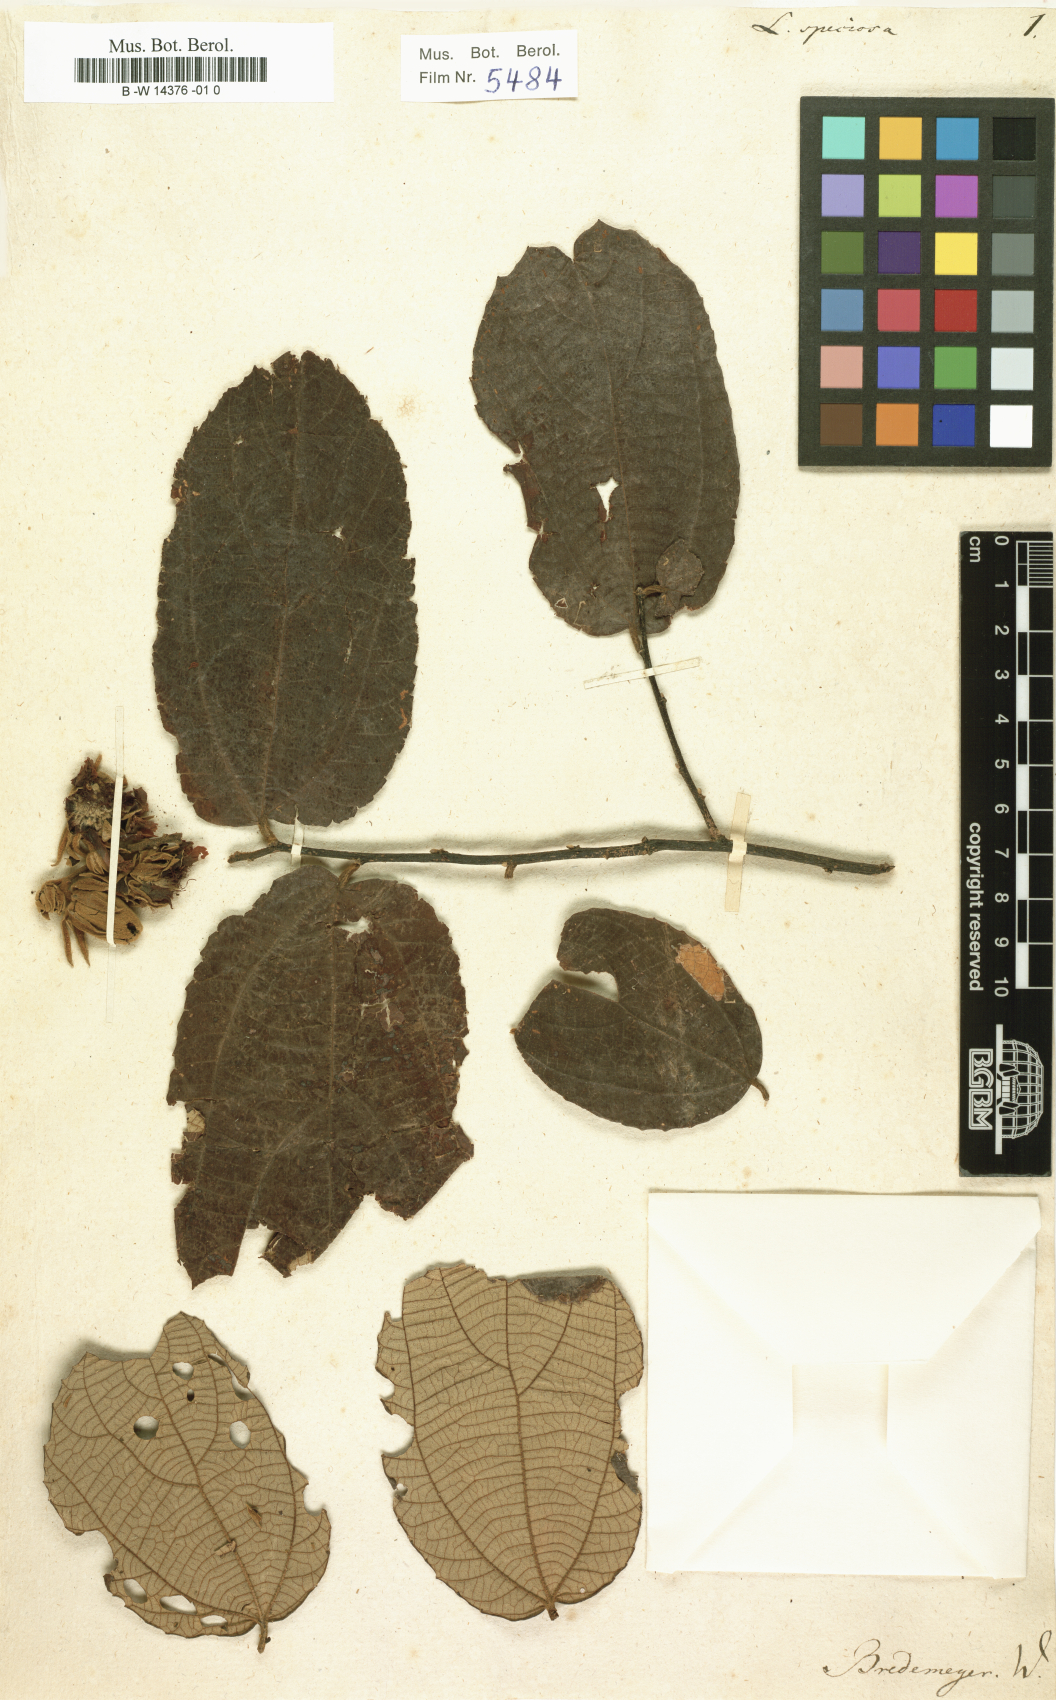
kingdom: Plantae
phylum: Tracheophyta
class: Magnoliopsida
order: Malvales
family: Malvaceae
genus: Luehea
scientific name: Luehea speciosa
